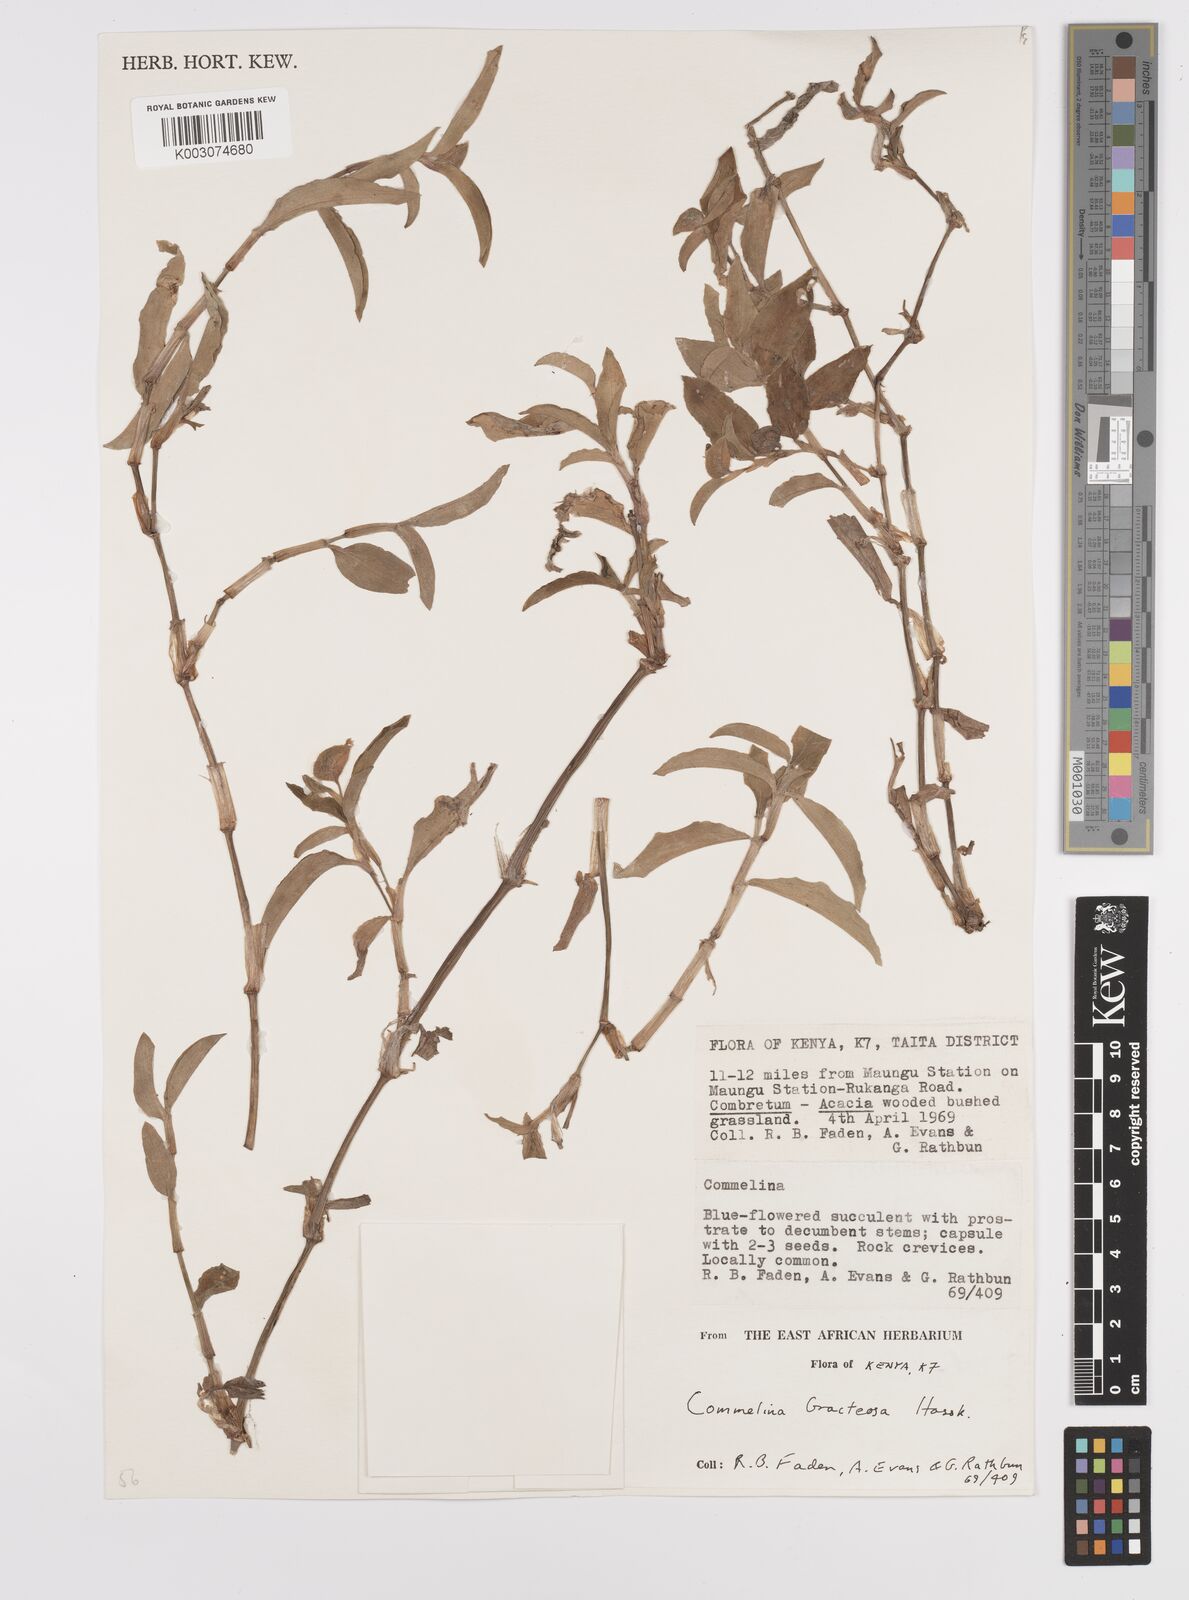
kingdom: Plantae
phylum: Tracheophyta
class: Liliopsida
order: Commelinales
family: Commelinaceae
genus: Commelina
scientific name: Commelina bracteosa
